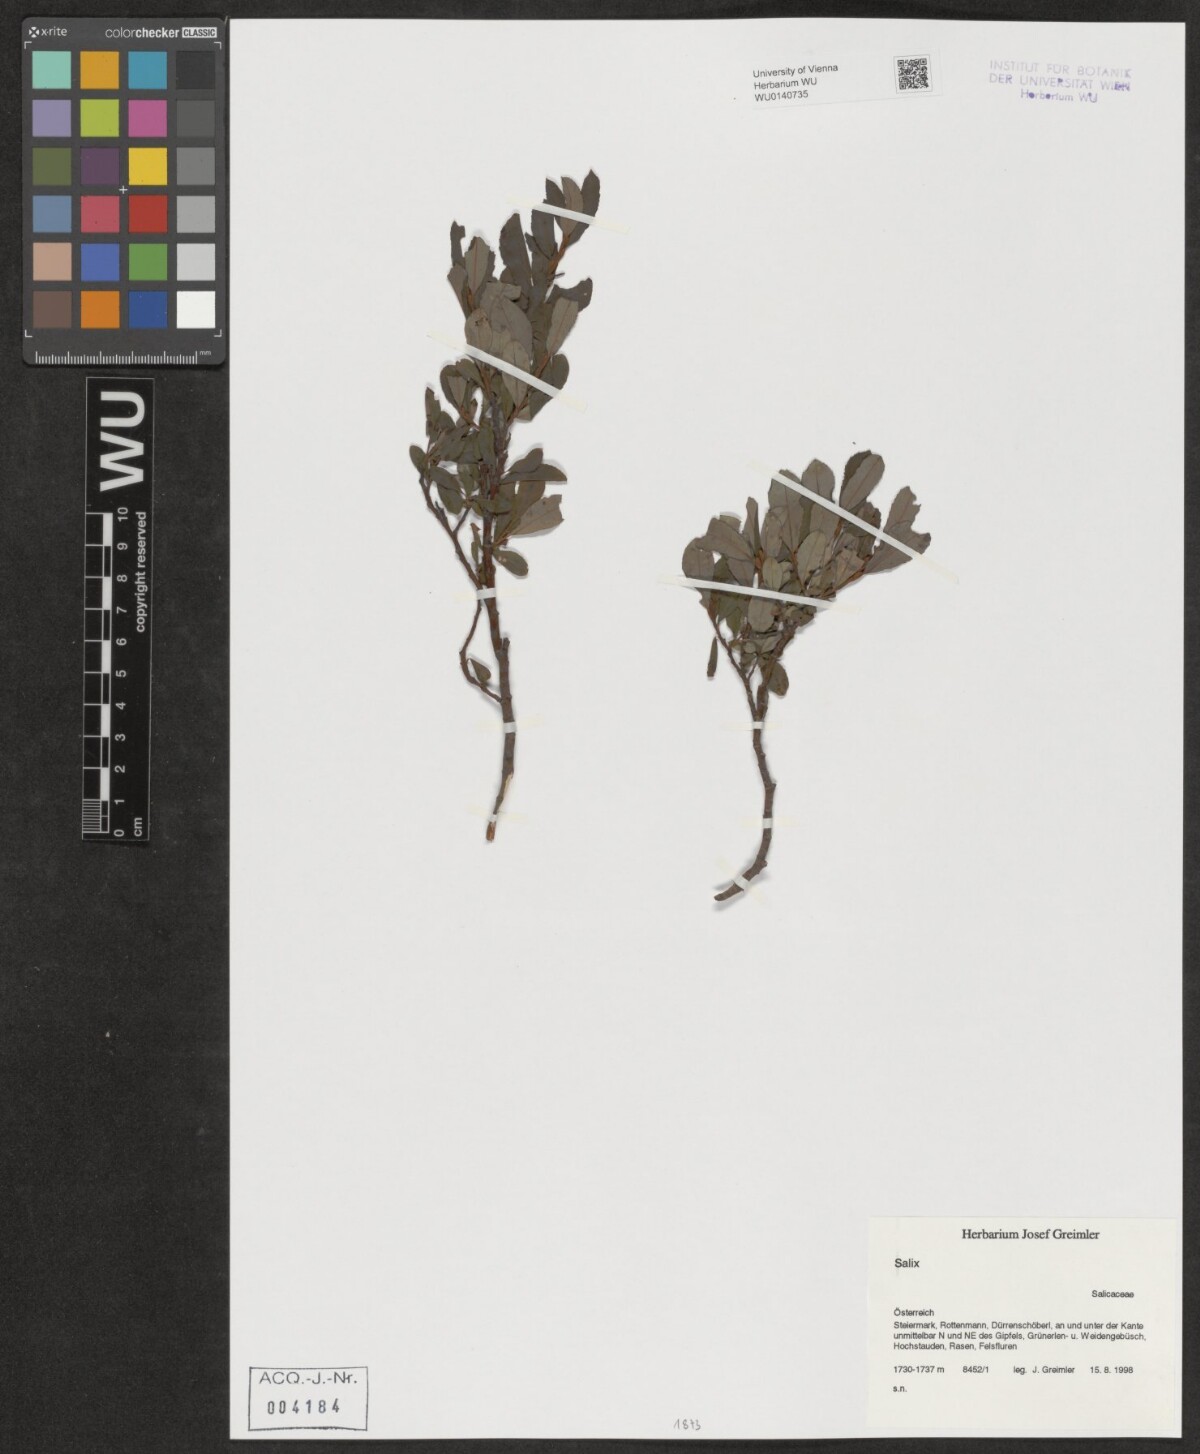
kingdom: Plantae
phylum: Tracheophyta
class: Magnoliopsida
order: Malpighiales
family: Salicaceae
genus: Salix
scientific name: Salix
